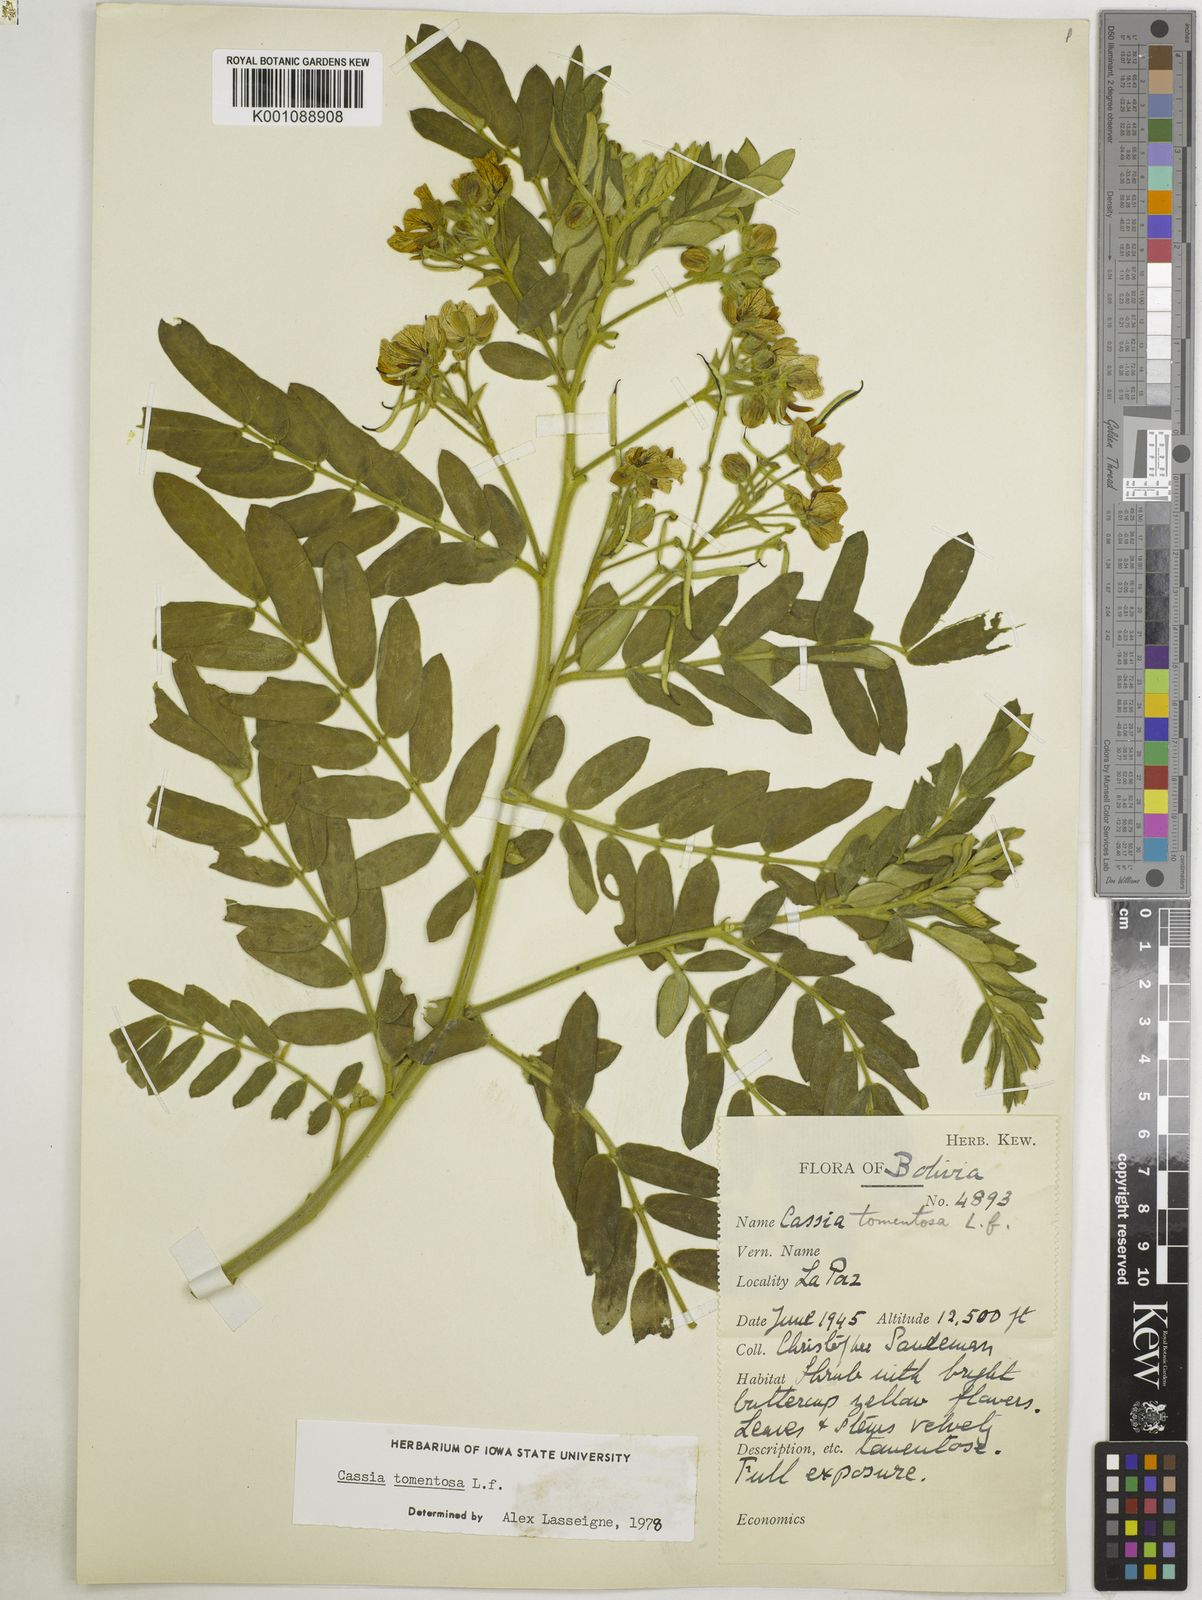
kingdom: Plantae
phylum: Tracheophyta
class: Magnoliopsida
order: Fabales
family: Fabaceae
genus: Senna
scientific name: Senna multiglandulosa
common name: Glandular senna
